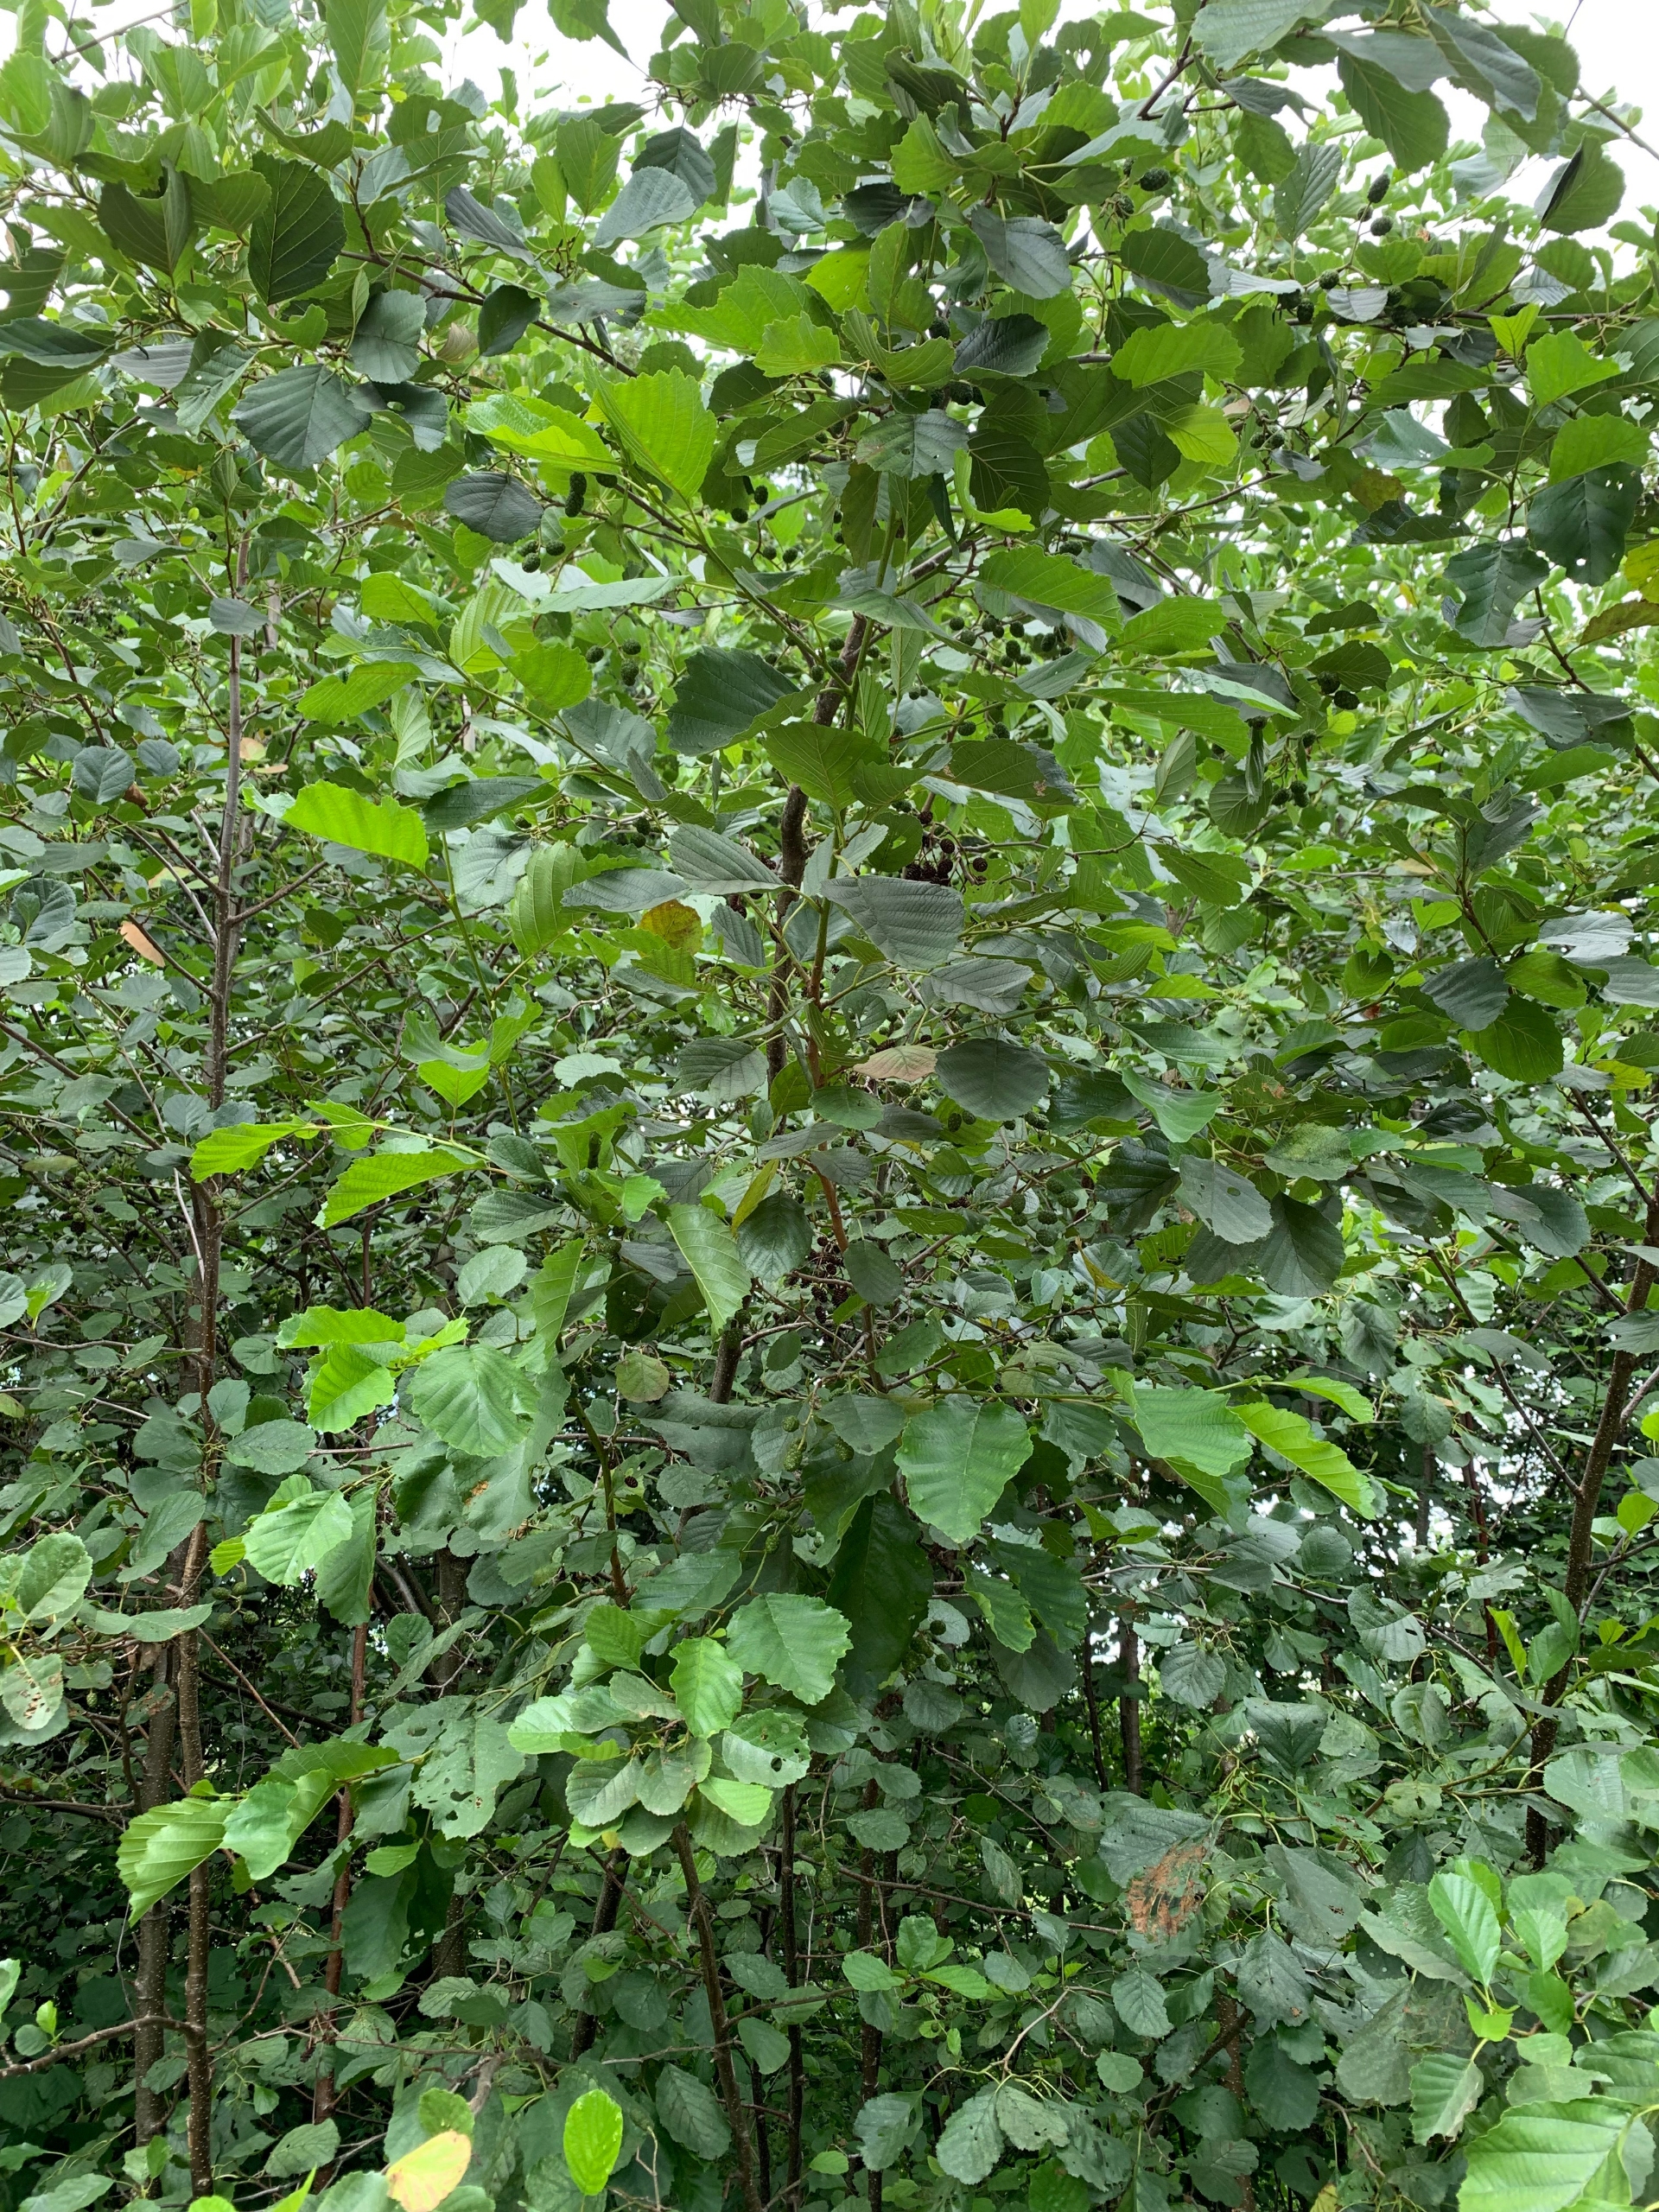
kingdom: Plantae
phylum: Tracheophyta
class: Magnoliopsida
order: Fagales
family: Betulaceae
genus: Alnus
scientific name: Alnus glutinosa
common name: Rød-el
